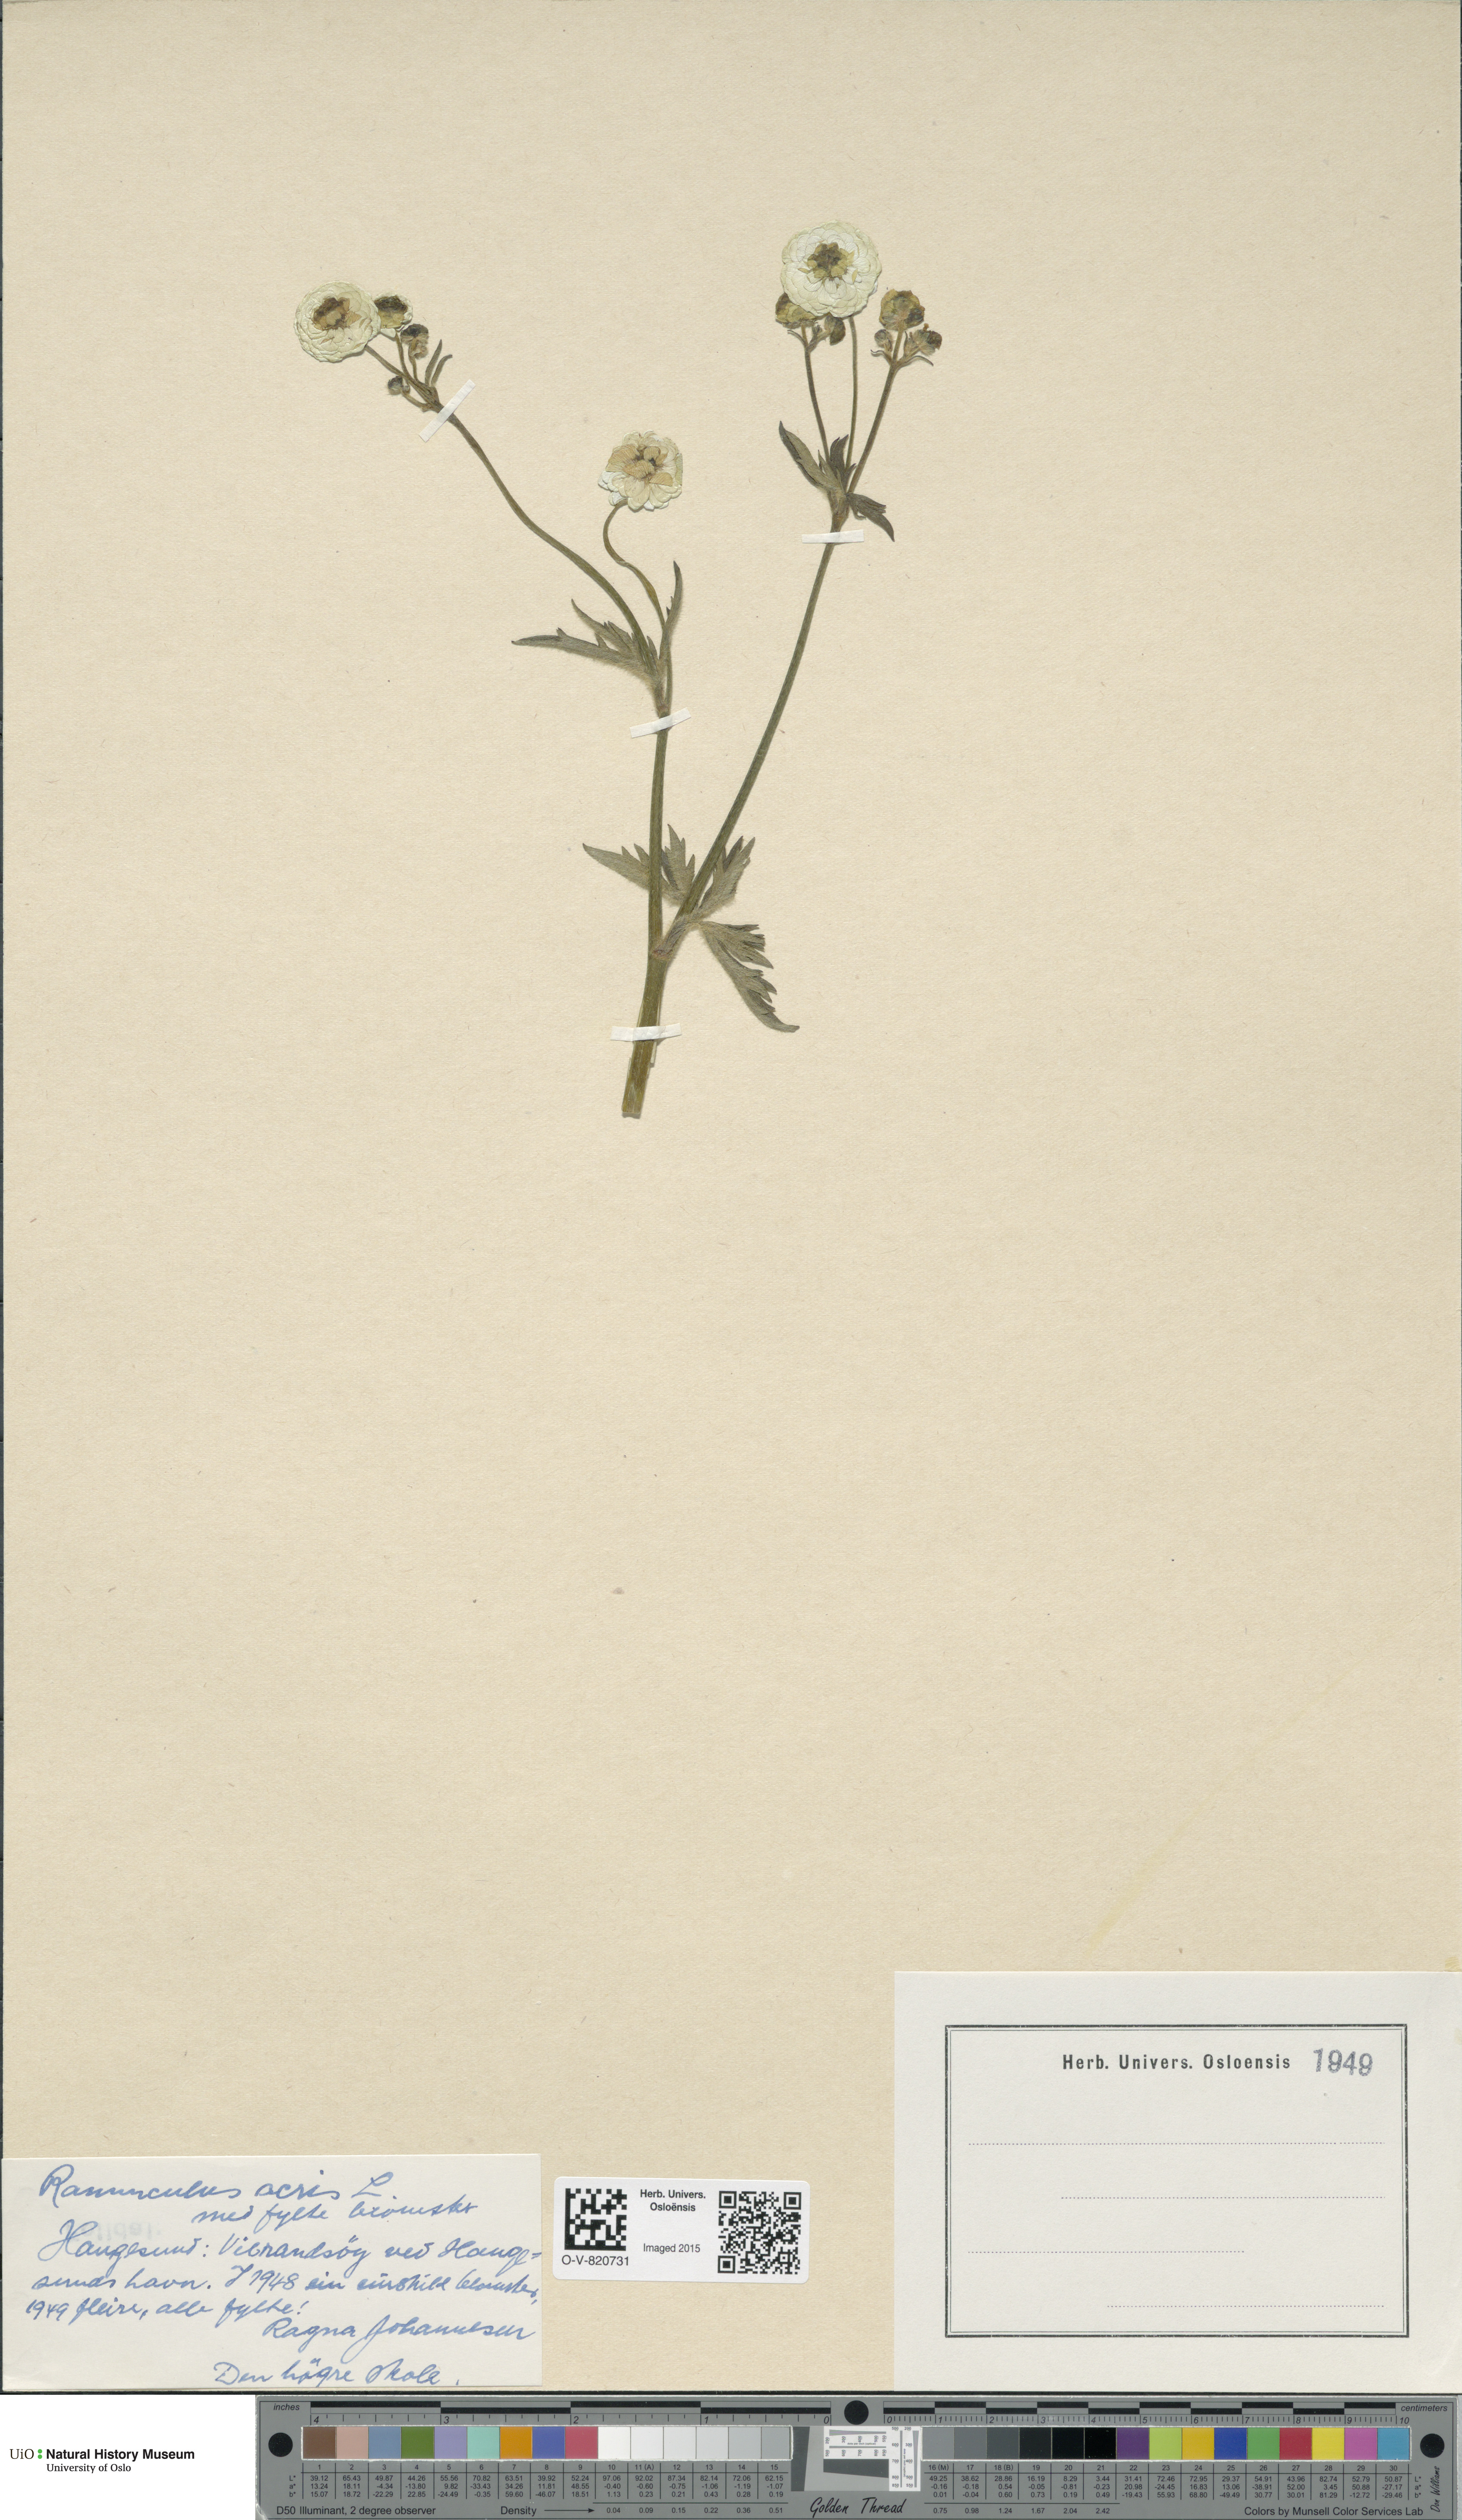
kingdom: Plantae
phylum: Tracheophyta
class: Magnoliopsida
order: Ranunculales
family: Ranunculaceae
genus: Ranunculus
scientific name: Ranunculus acris
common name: Meadow buttercup
